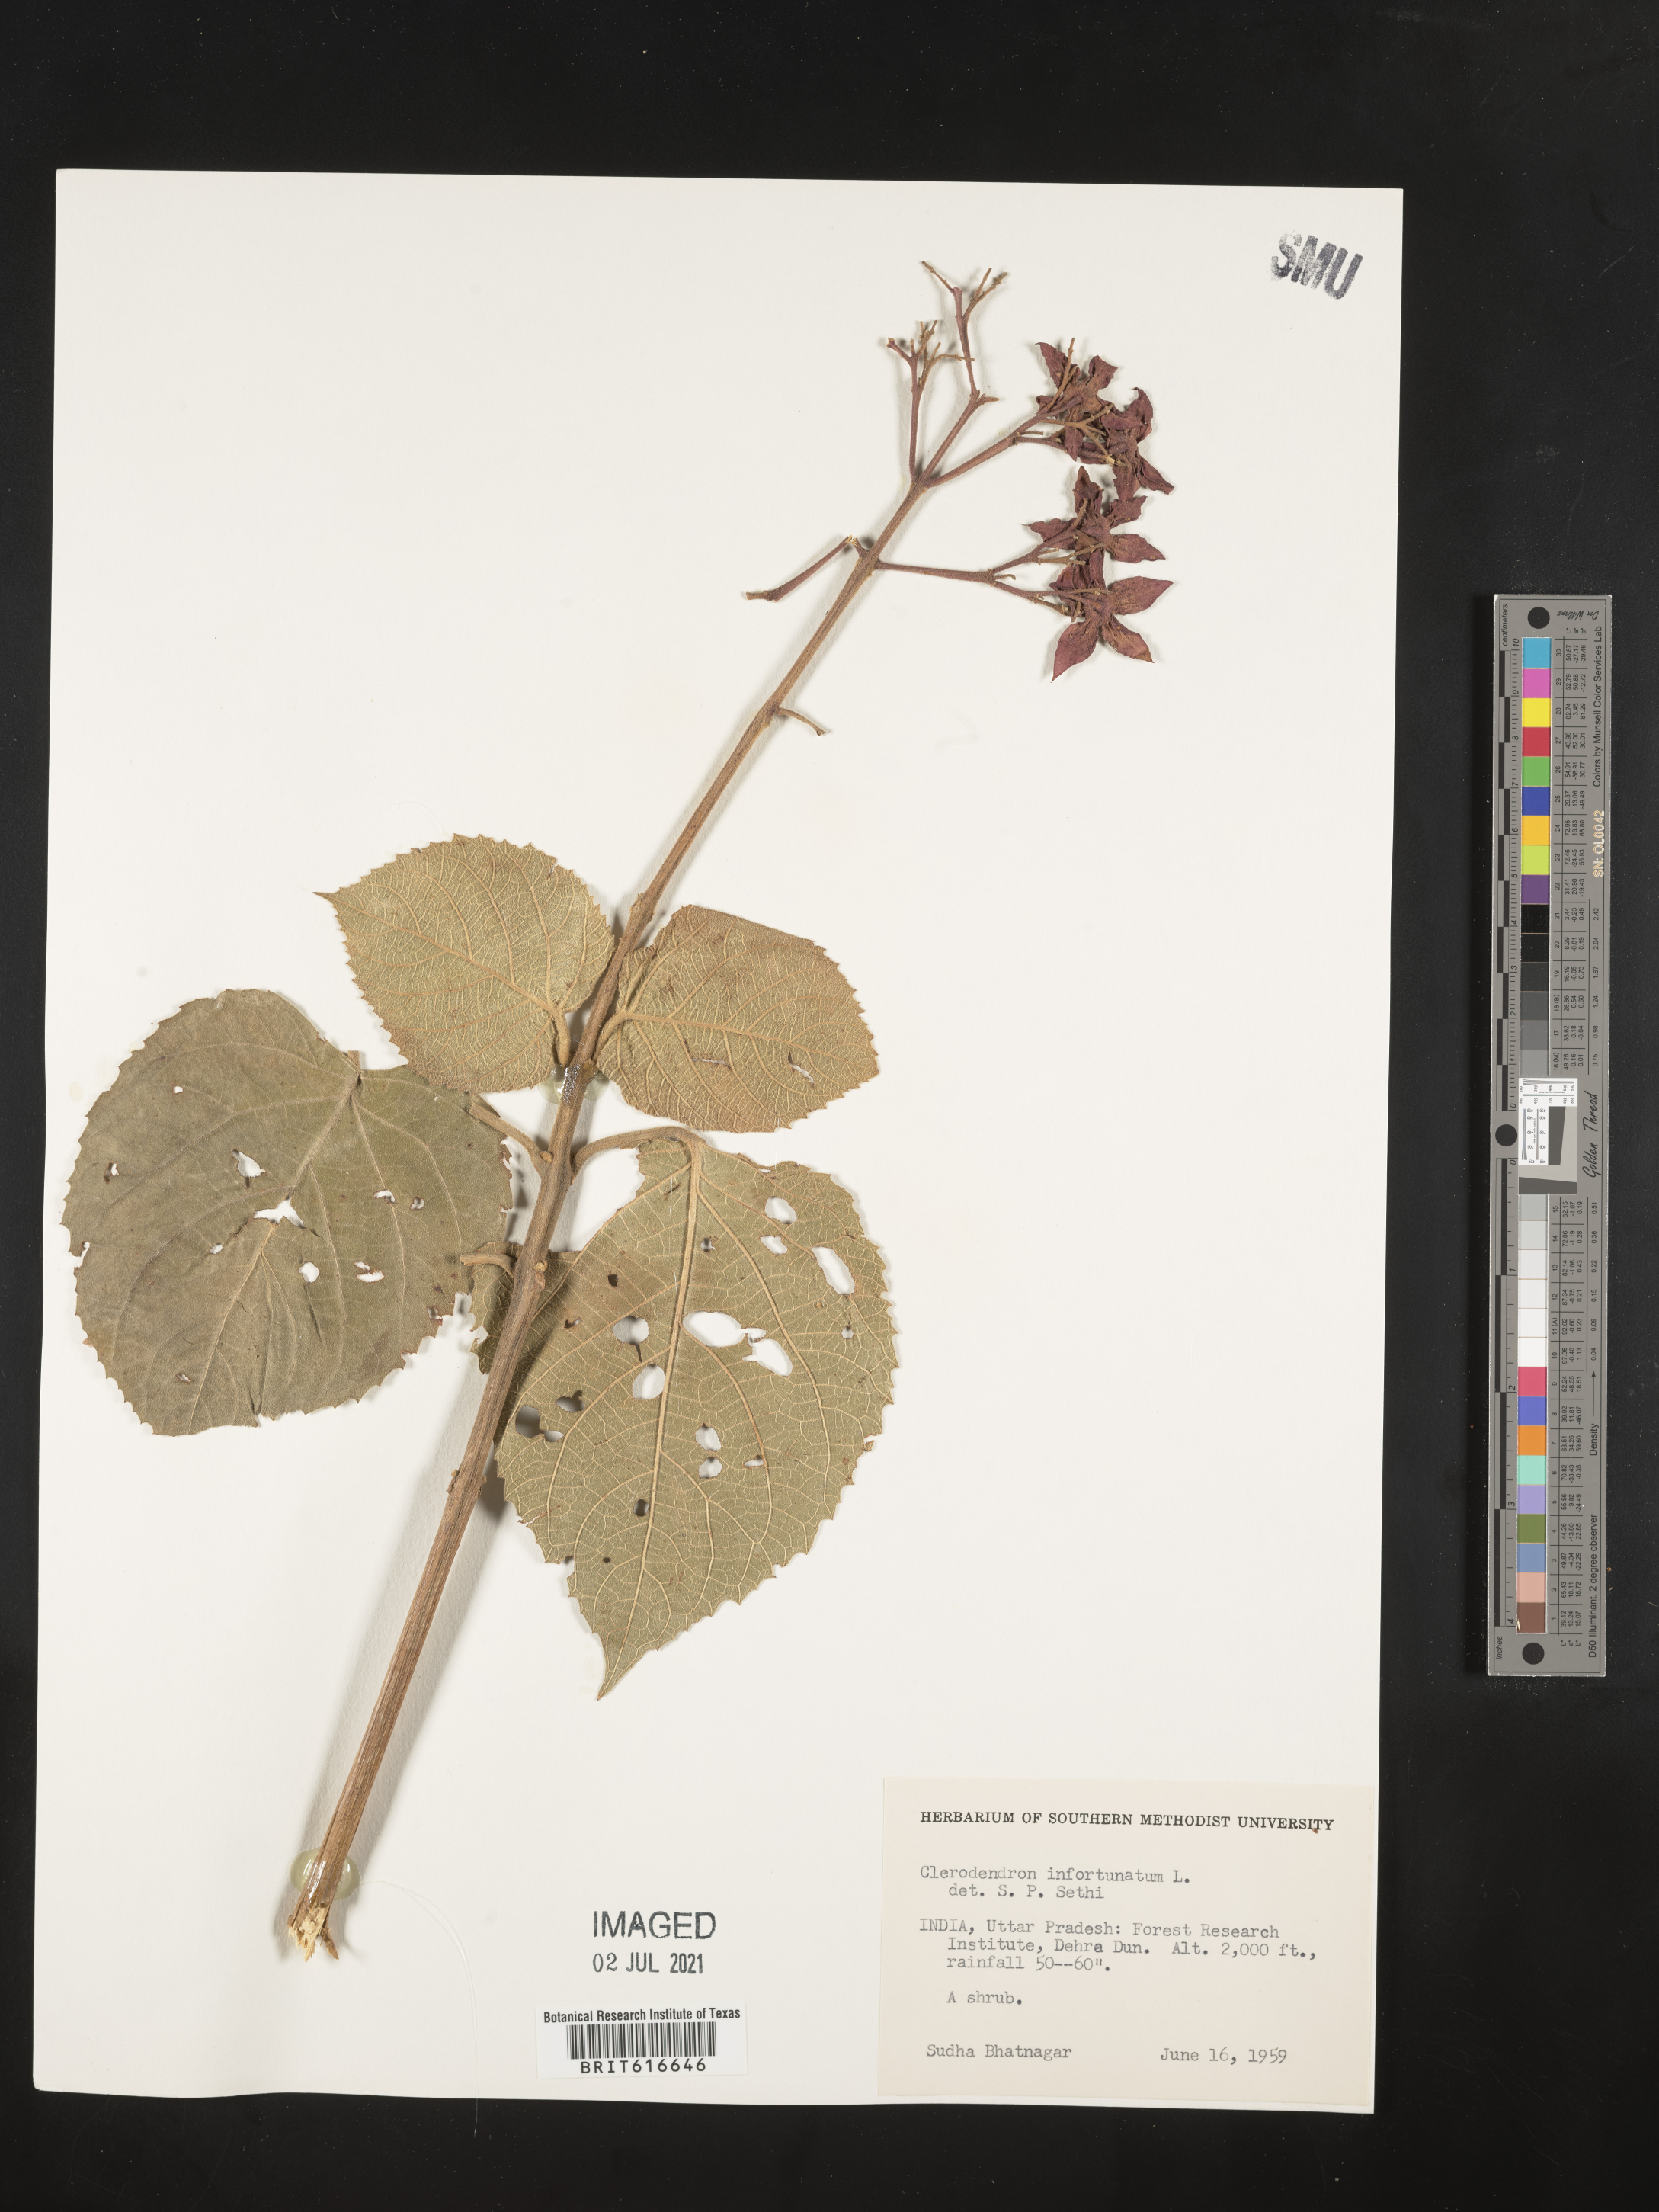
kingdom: Plantae
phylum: Tracheophyta
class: Magnoliopsida
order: Lamiales
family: Lamiaceae
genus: Clerodendrum
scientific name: Clerodendrum infortunatum
